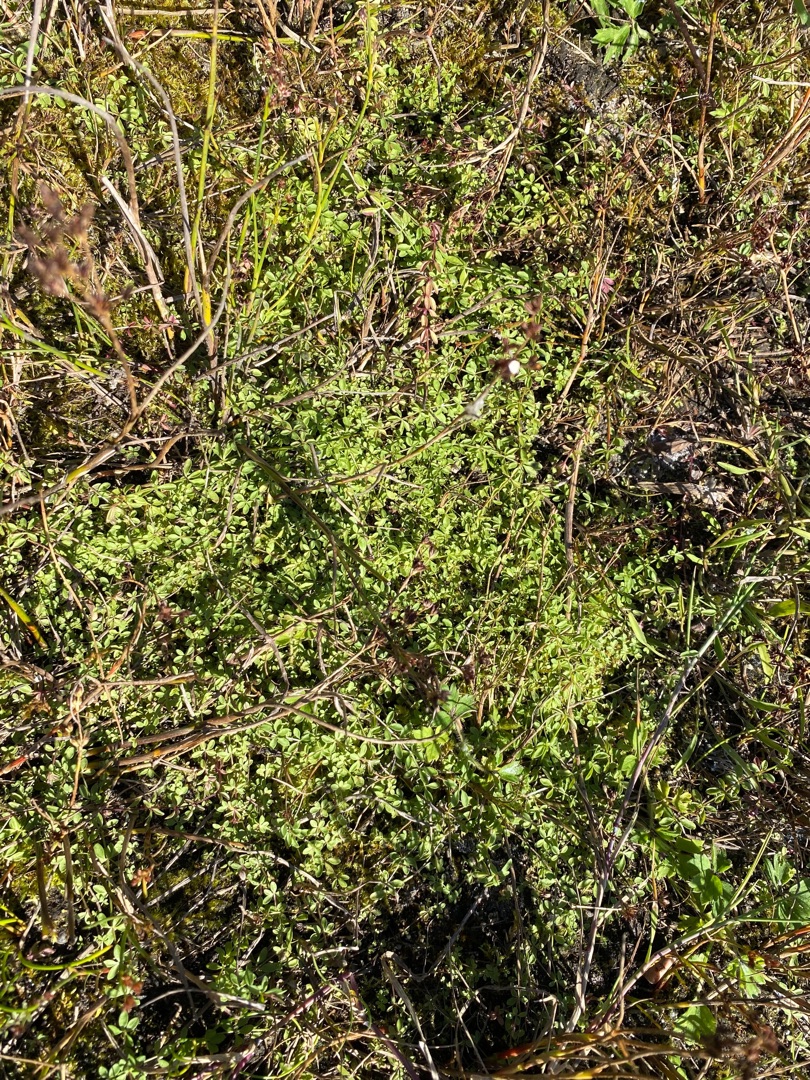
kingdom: Plantae
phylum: Tracheophyta
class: Magnoliopsida
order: Gentianales
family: Rubiaceae
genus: Galium
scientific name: Galium palustre
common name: Kær-snerre
